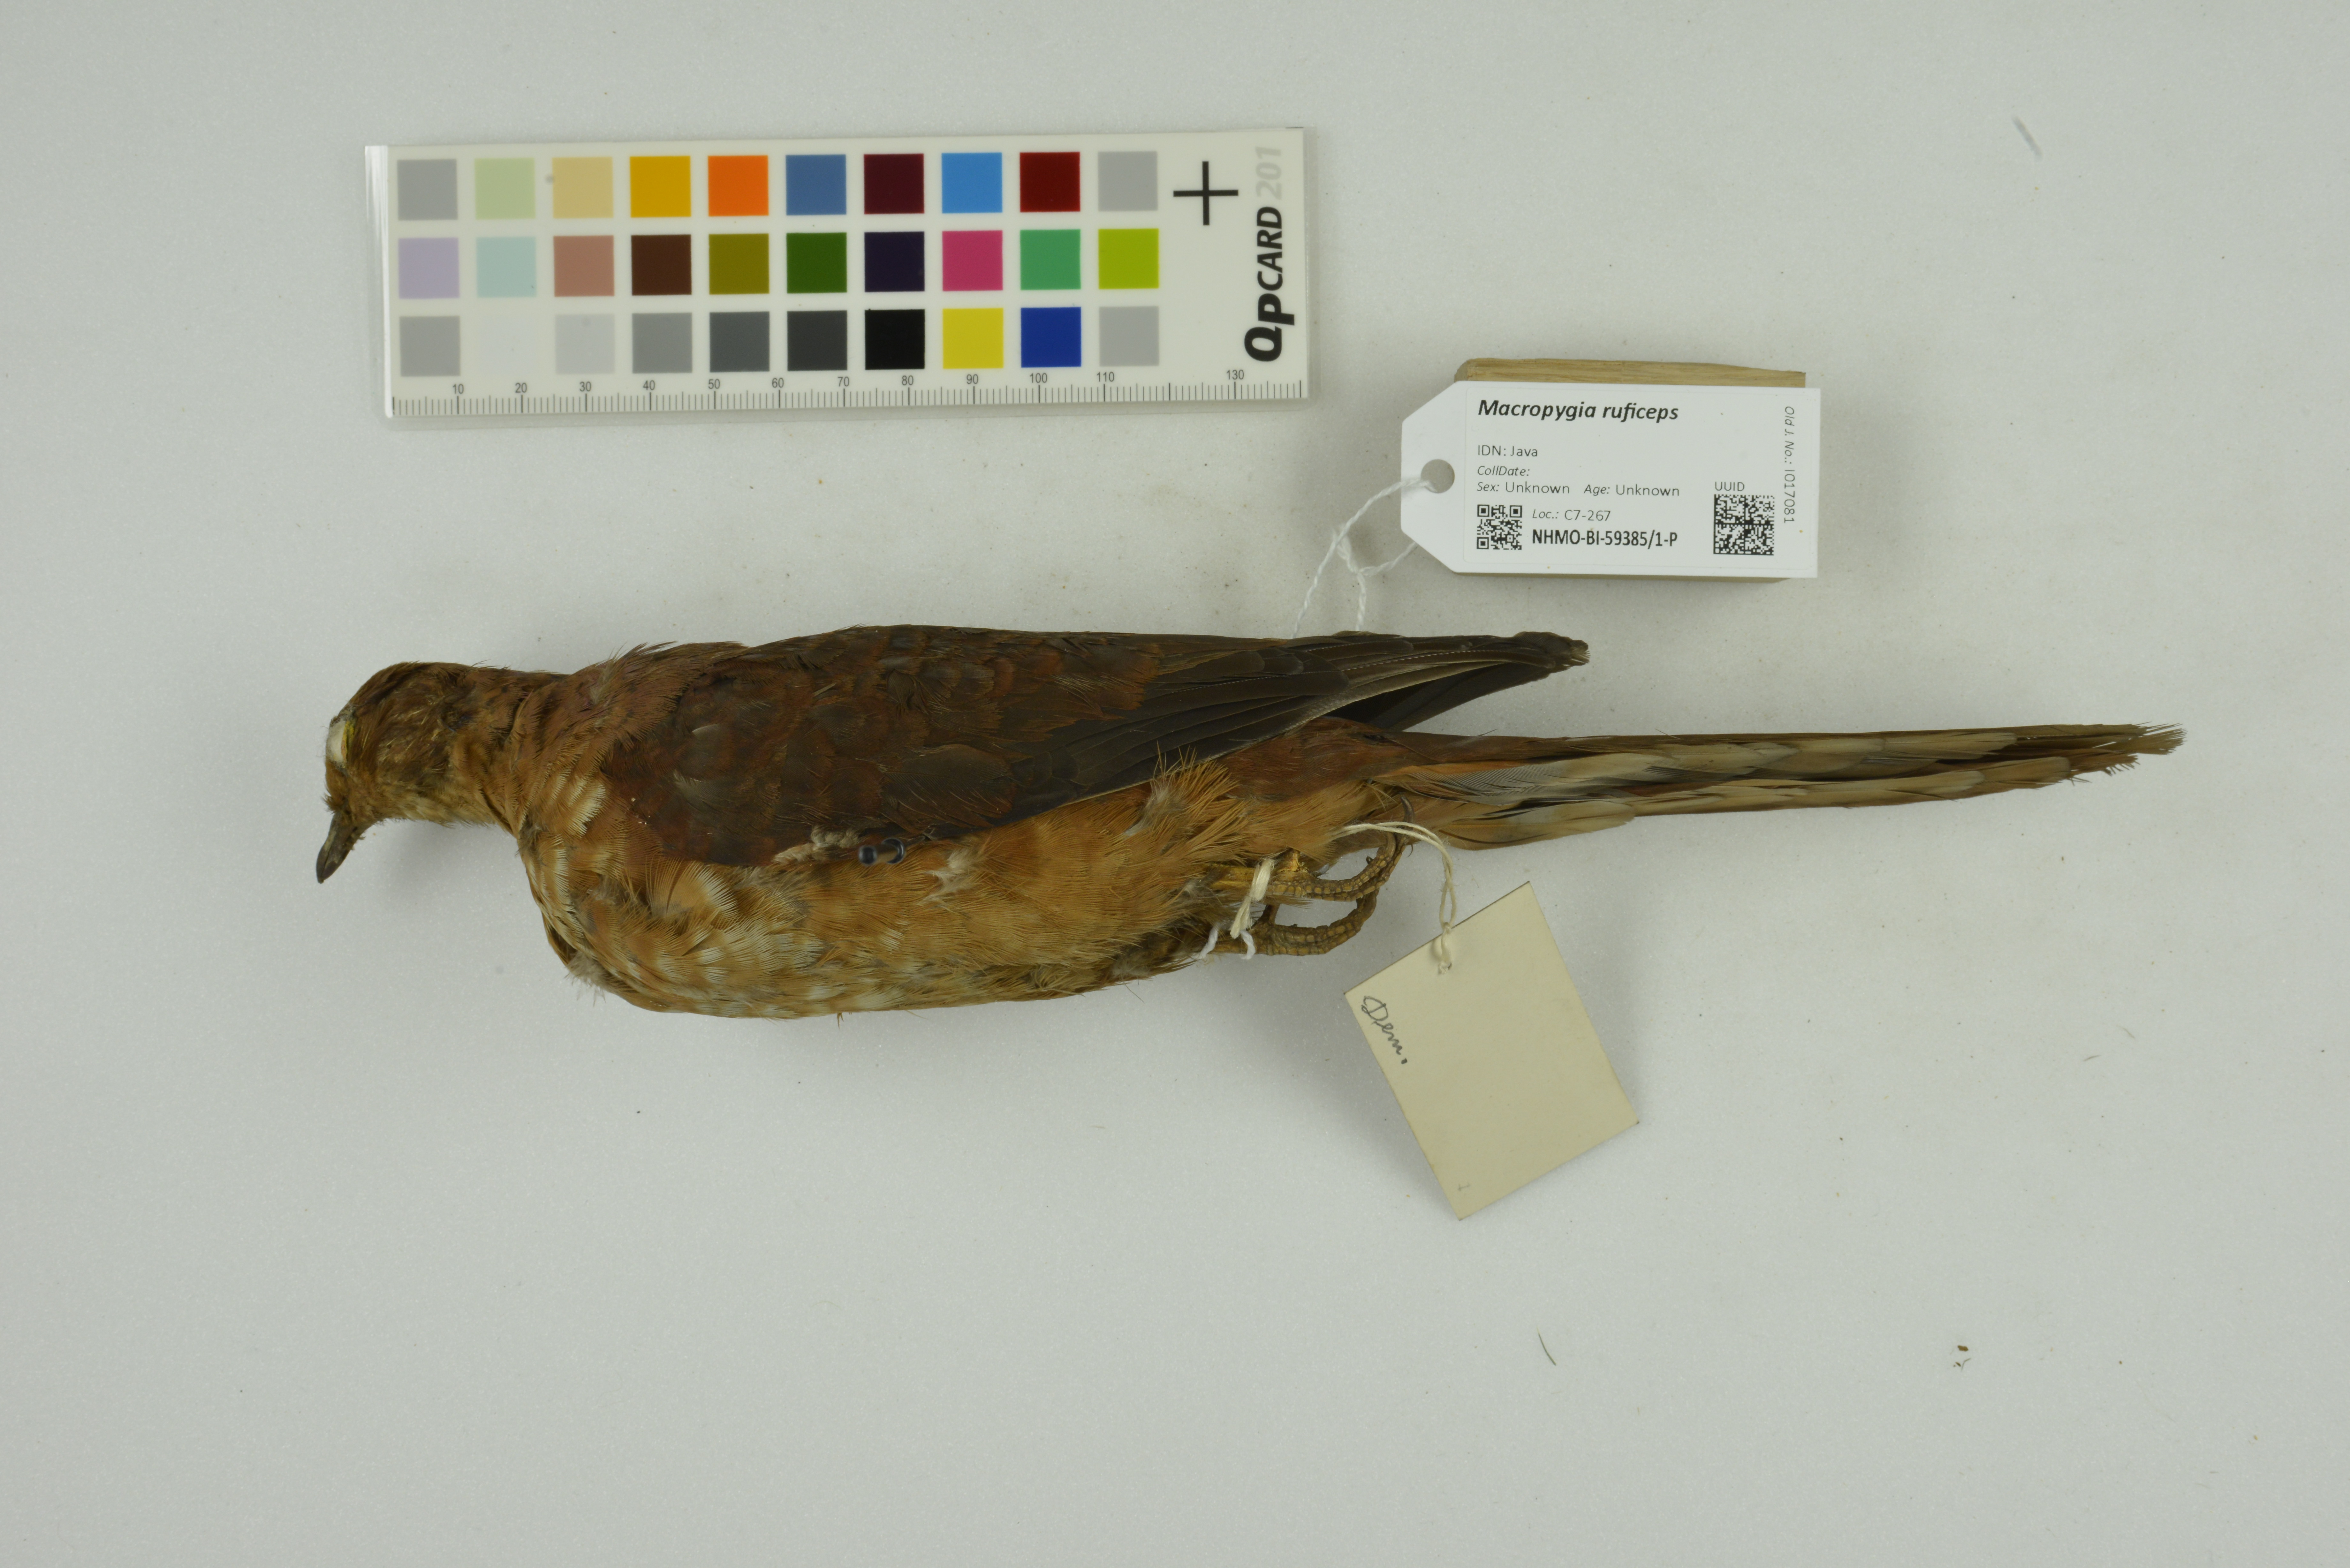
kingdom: Animalia
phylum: Chordata
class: Aves
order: Columbiformes
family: Columbidae
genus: Macropygia
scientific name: Macropygia ruficeps
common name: Little cuckoo-dove
